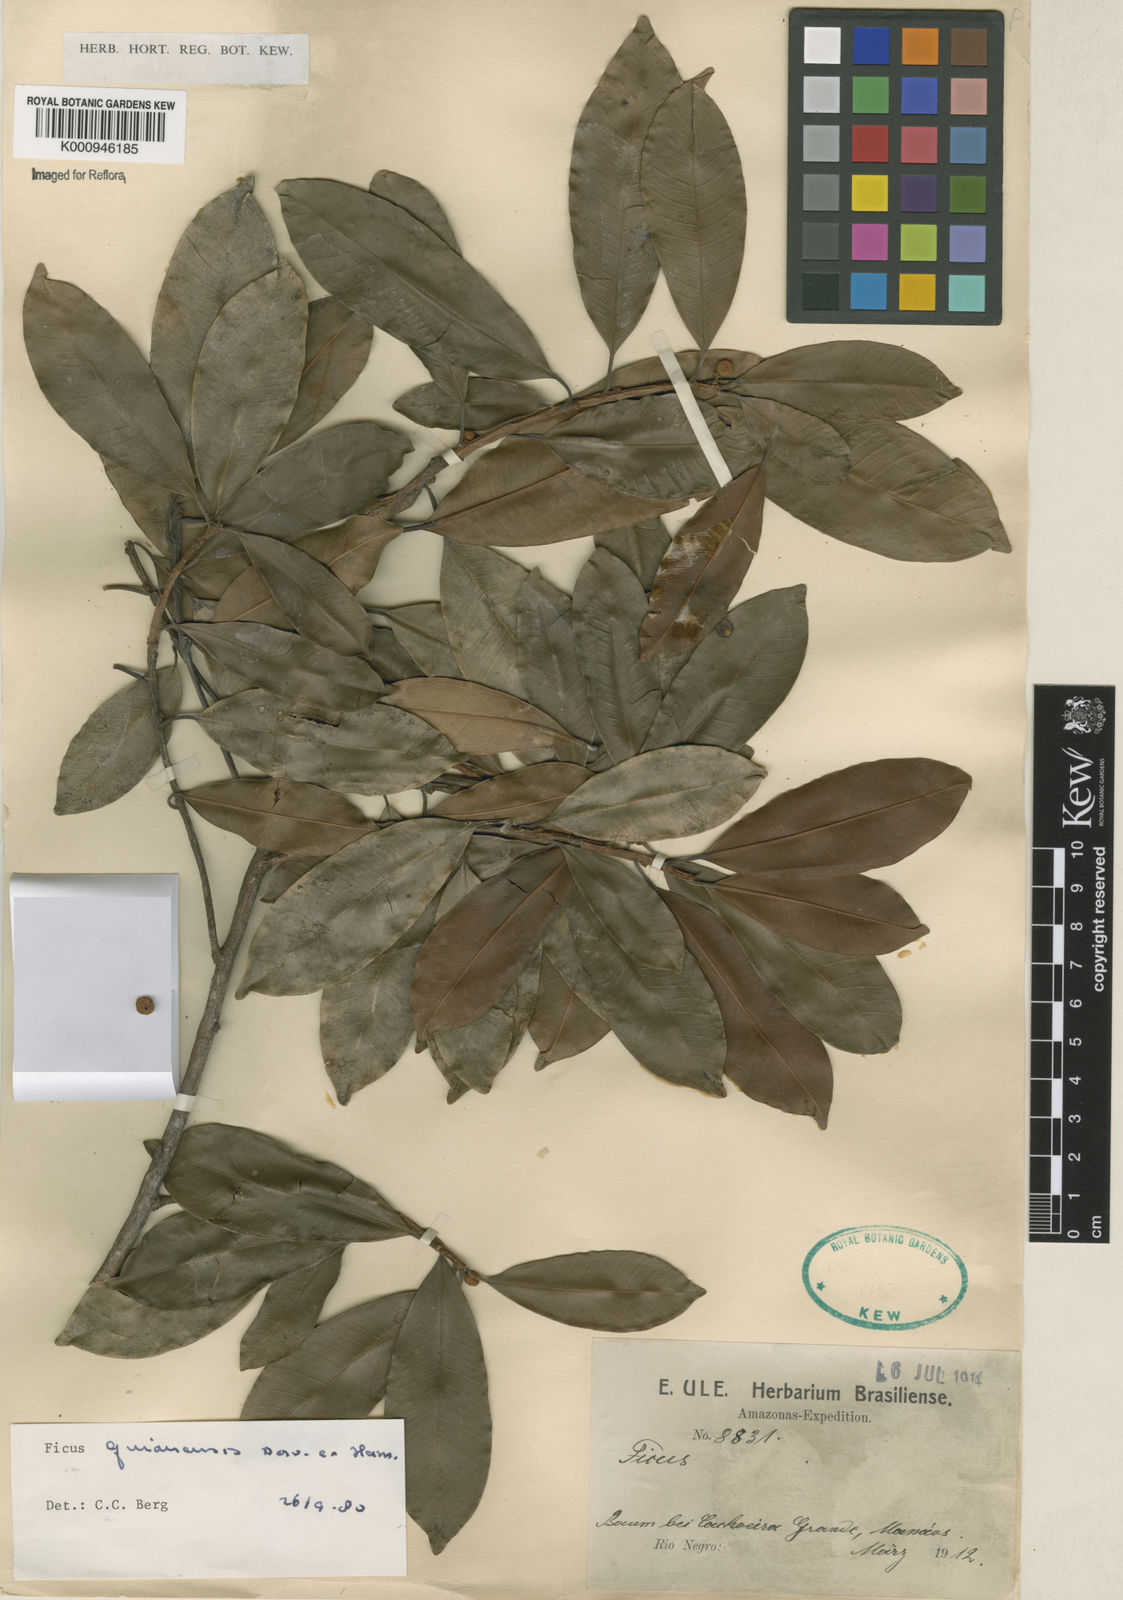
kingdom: Plantae
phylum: Tracheophyta
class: Magnoliopsida
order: Rosales
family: Moraceae
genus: Ficus
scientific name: Ficus americana
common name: Jamaican cherry fig
